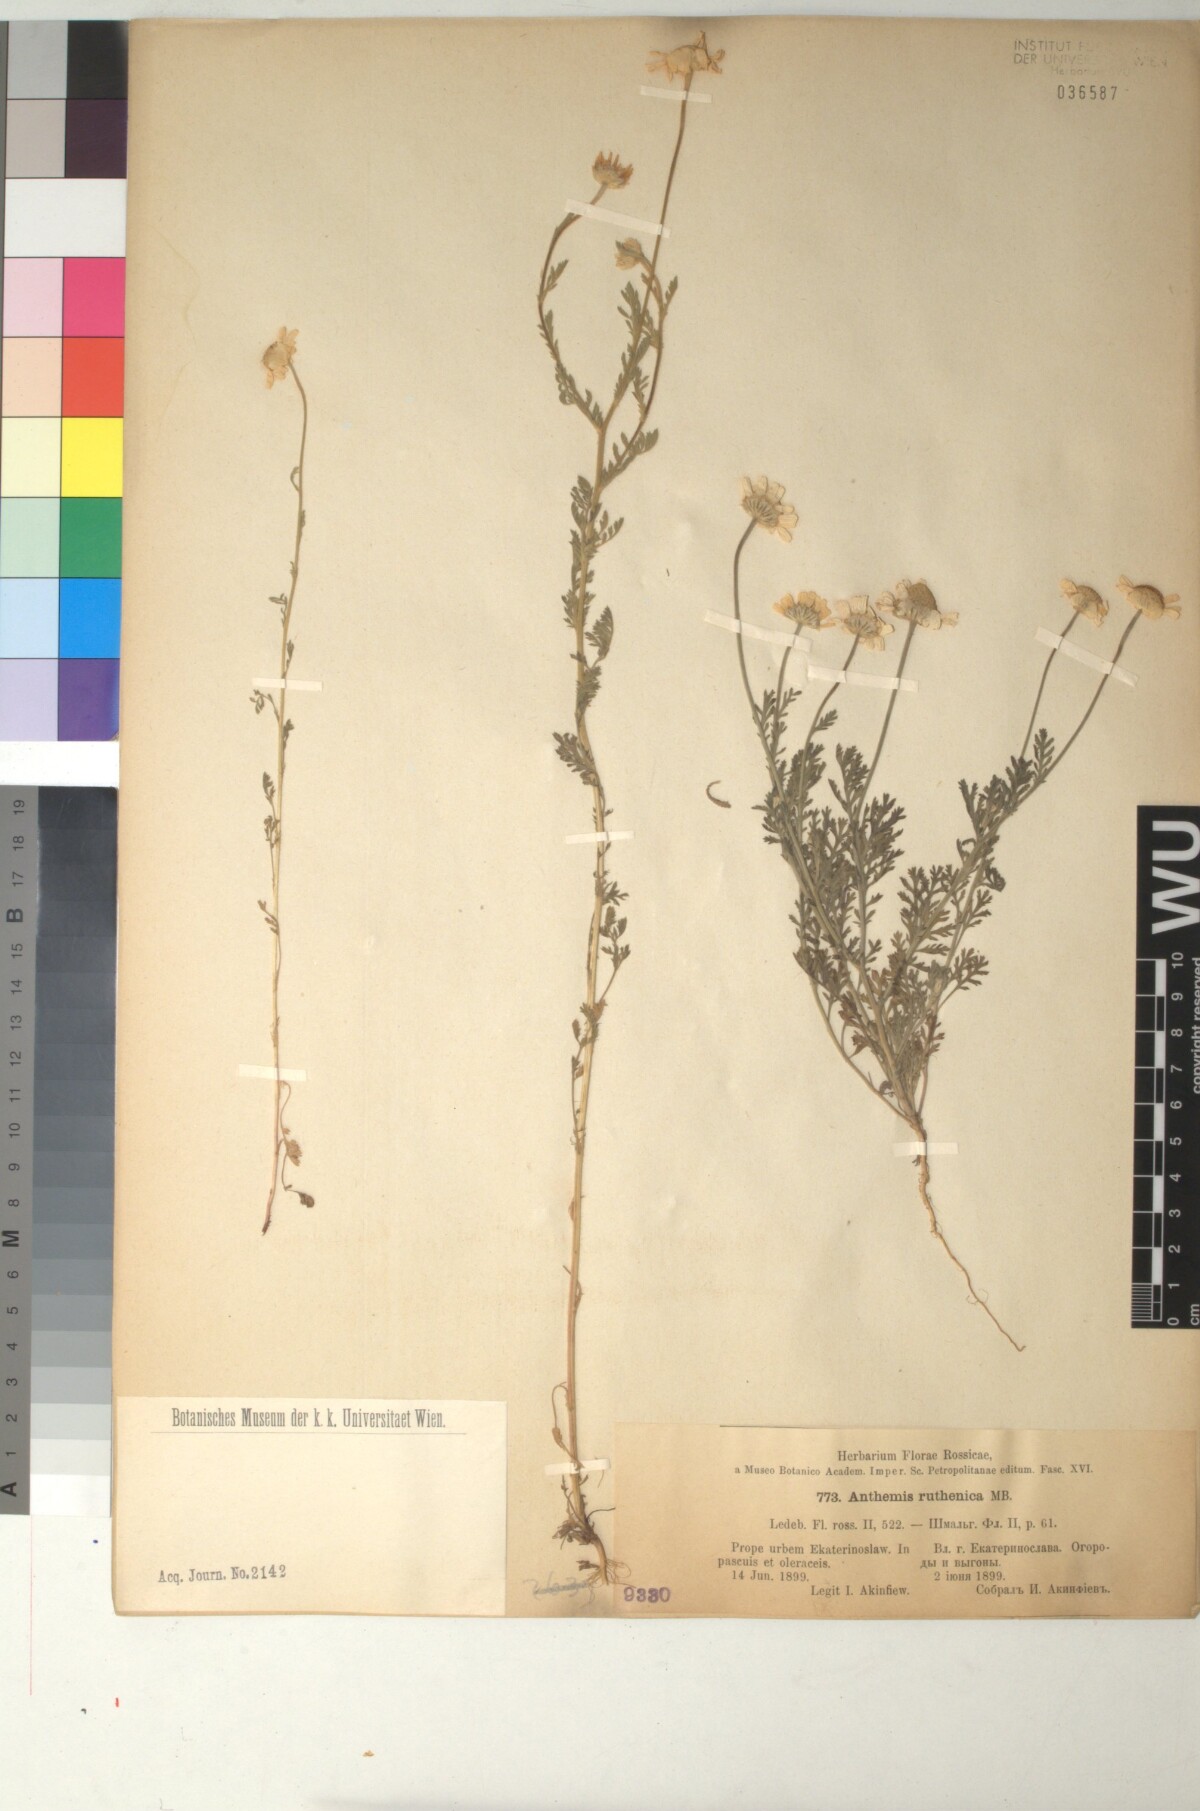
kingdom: Plantae
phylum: Tracheophyta
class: Magnoliopsida
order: Asterales
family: Asteraceae
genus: Anthemis
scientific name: Anthemis ruthenica
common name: Eastern chamomile
